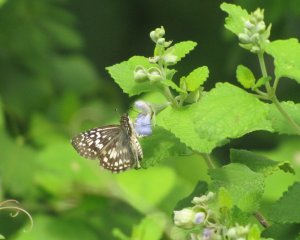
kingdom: Animalia
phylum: Arthropoda
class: Insecta
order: Lepidoptera
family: Hesperiidae
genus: Pyrgus
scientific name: Pyrgus oileus
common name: Tropical Checkered-Skipper
